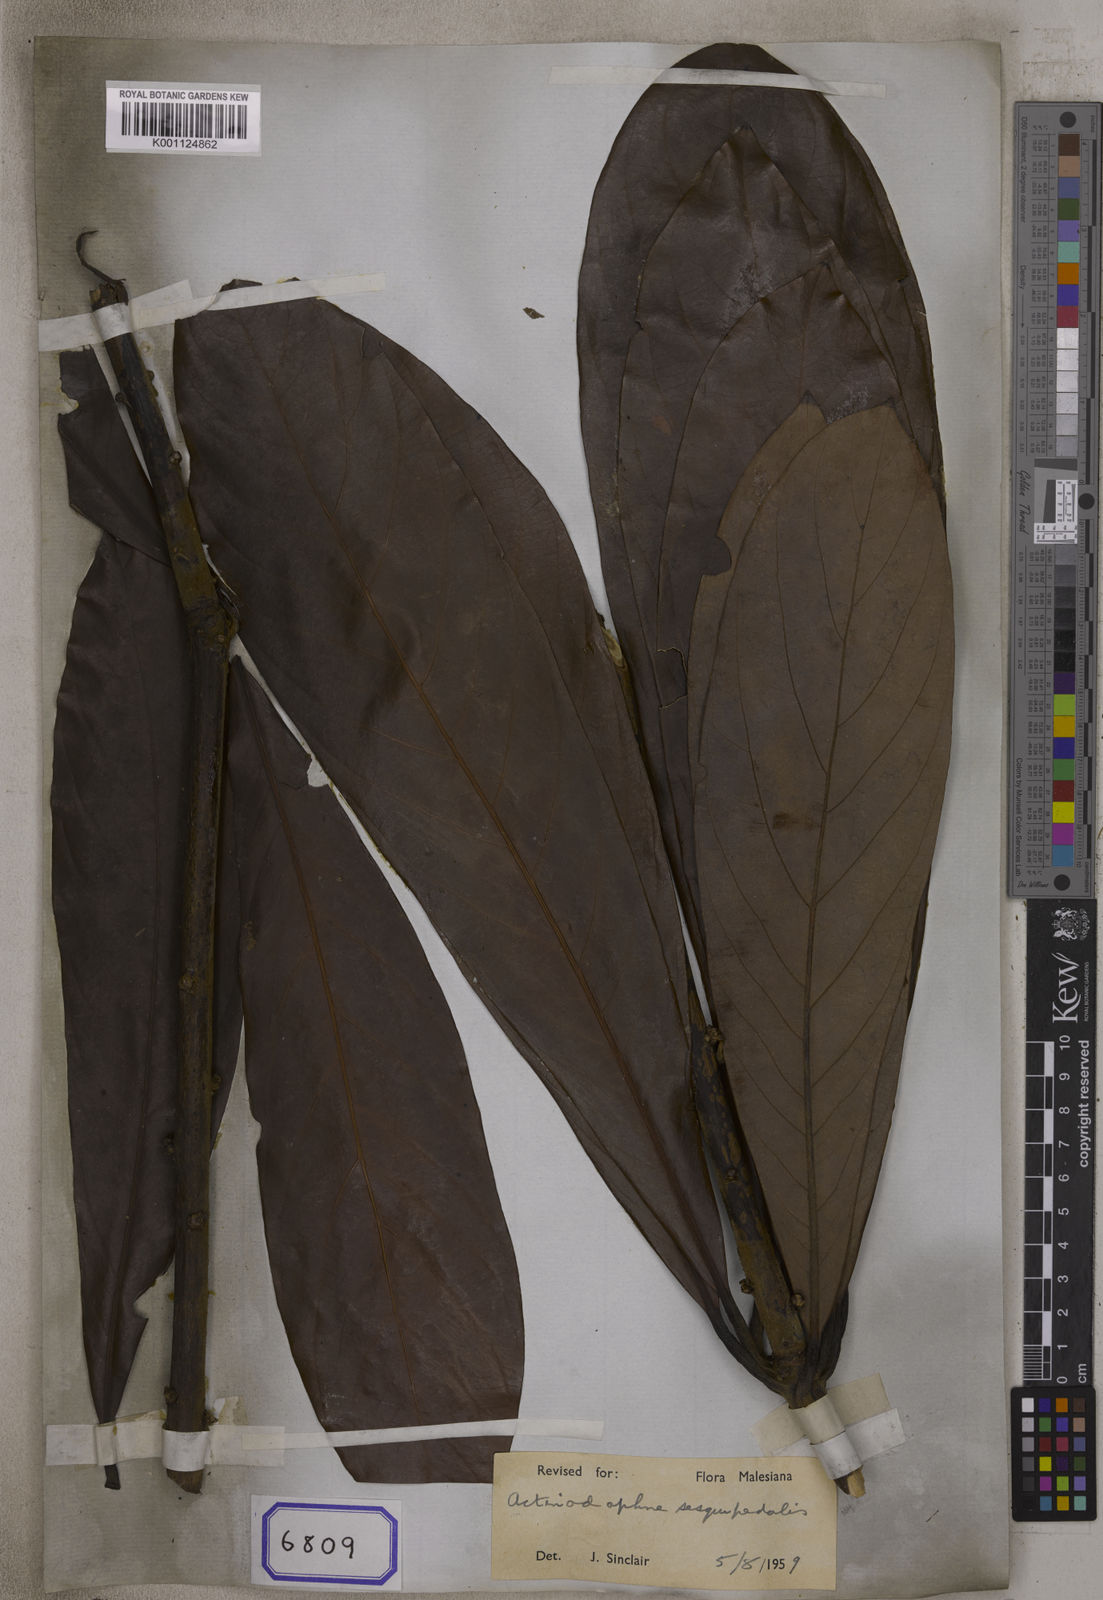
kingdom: Plantae
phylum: Tracheophyta
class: Magnoliopsida
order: Laurales
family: Lauraceae
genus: Actinodaphne
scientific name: Actinodaphne sesquipedalis
